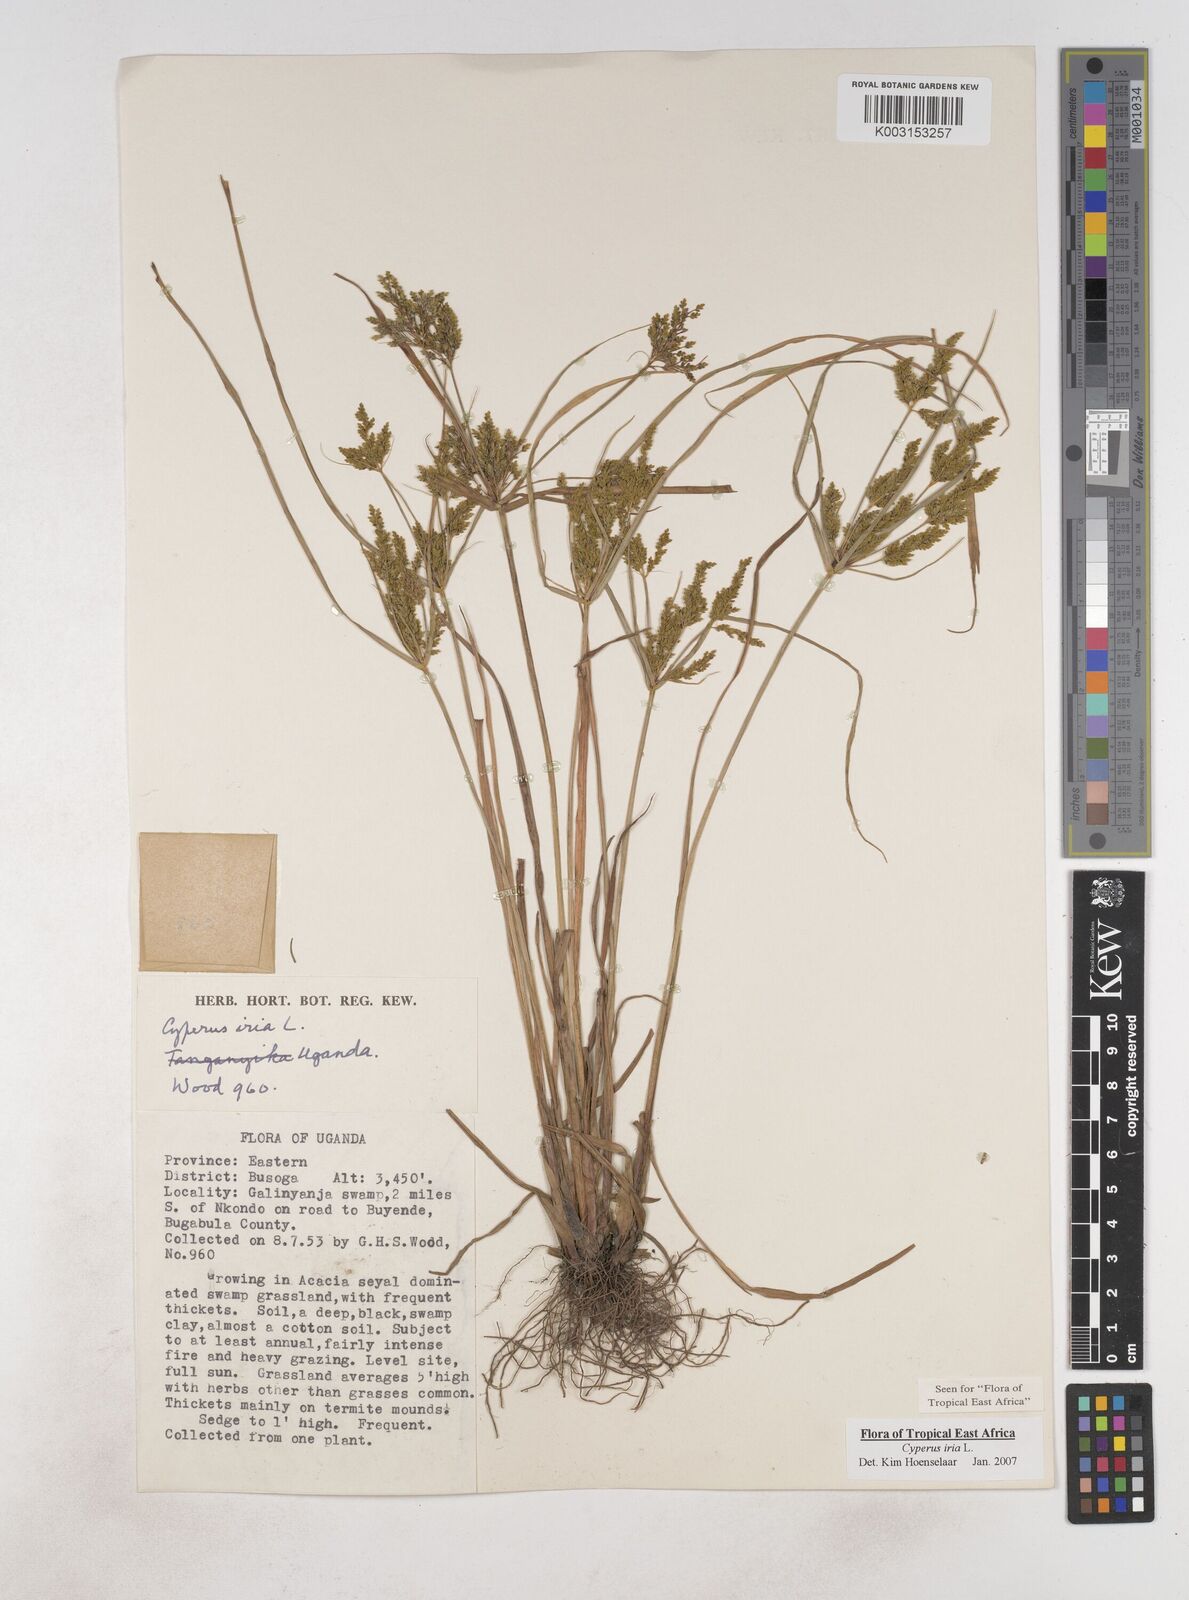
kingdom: Plantae
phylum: Tracheophyta
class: Liliopsida
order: Poales
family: Cyperaceae
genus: Cyperus
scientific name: Cyperus iria
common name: Ricefield flatsedge
